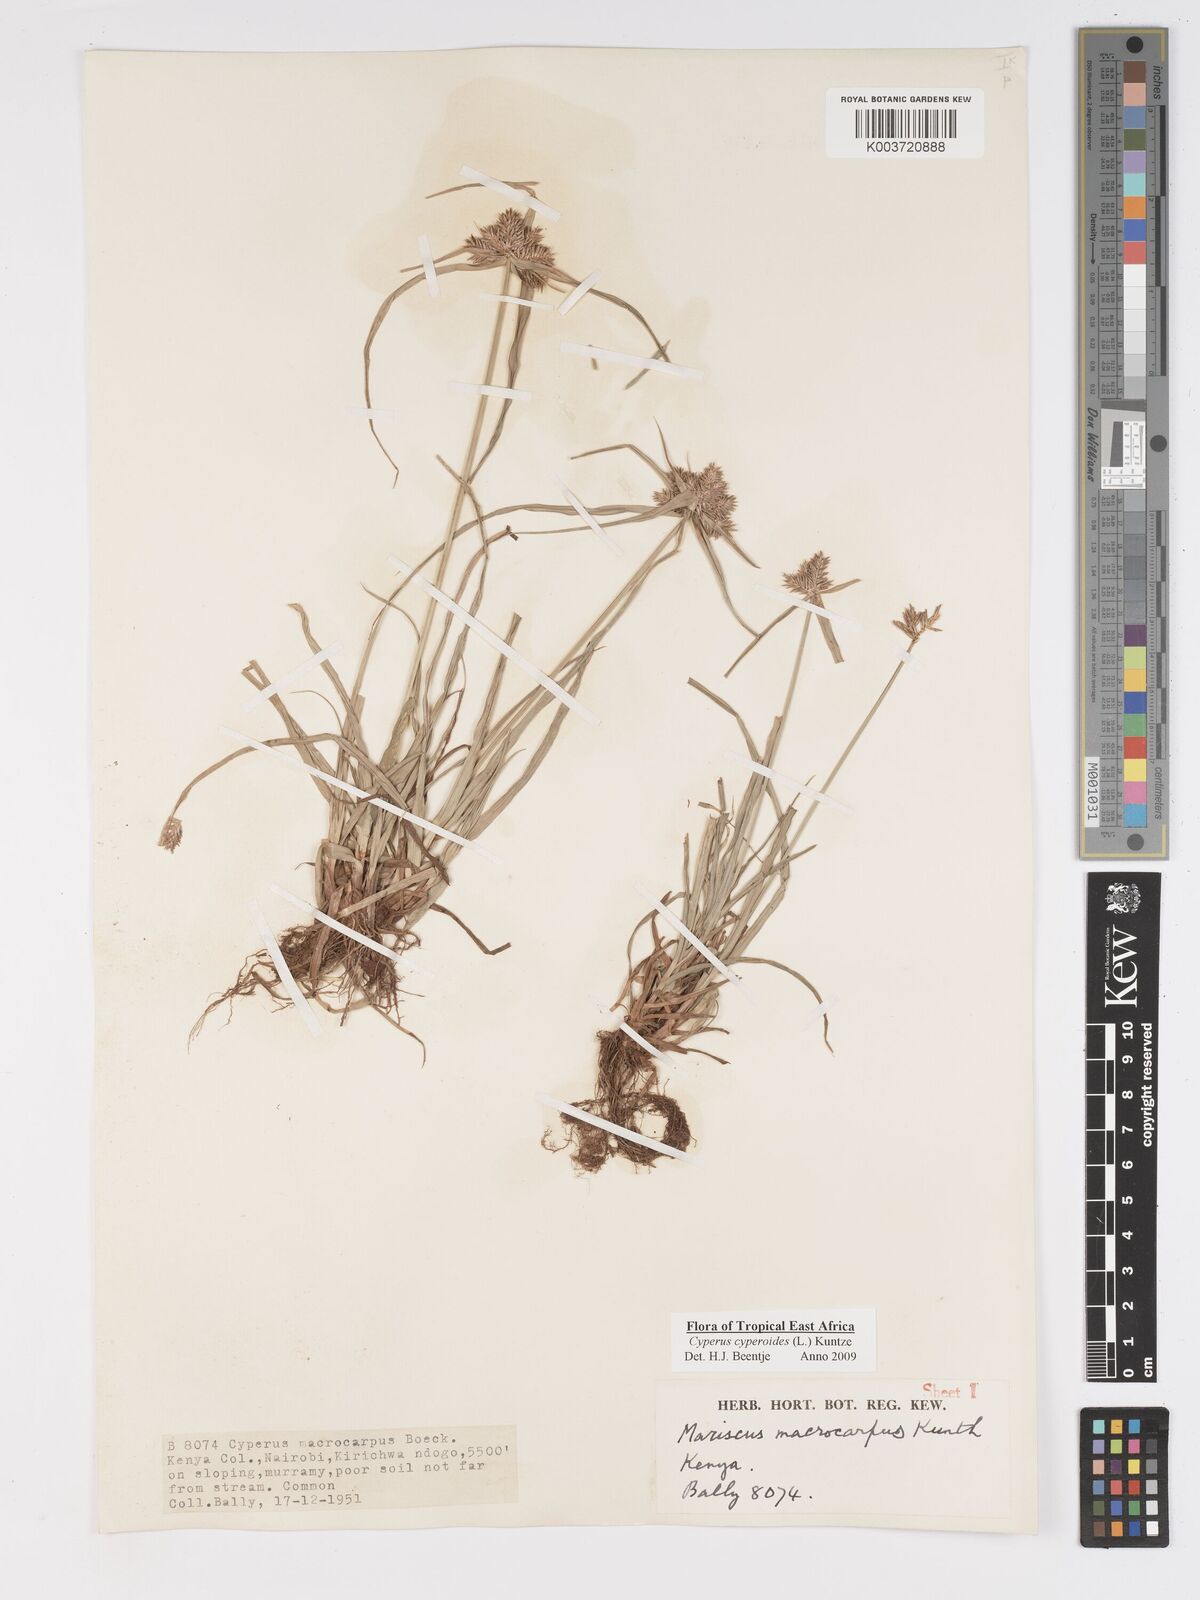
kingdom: Plantae
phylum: Tracheophyta
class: Liliopsida
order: Poales
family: Cyperaceae
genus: Cyperus
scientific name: Cyperus macrocarpus
